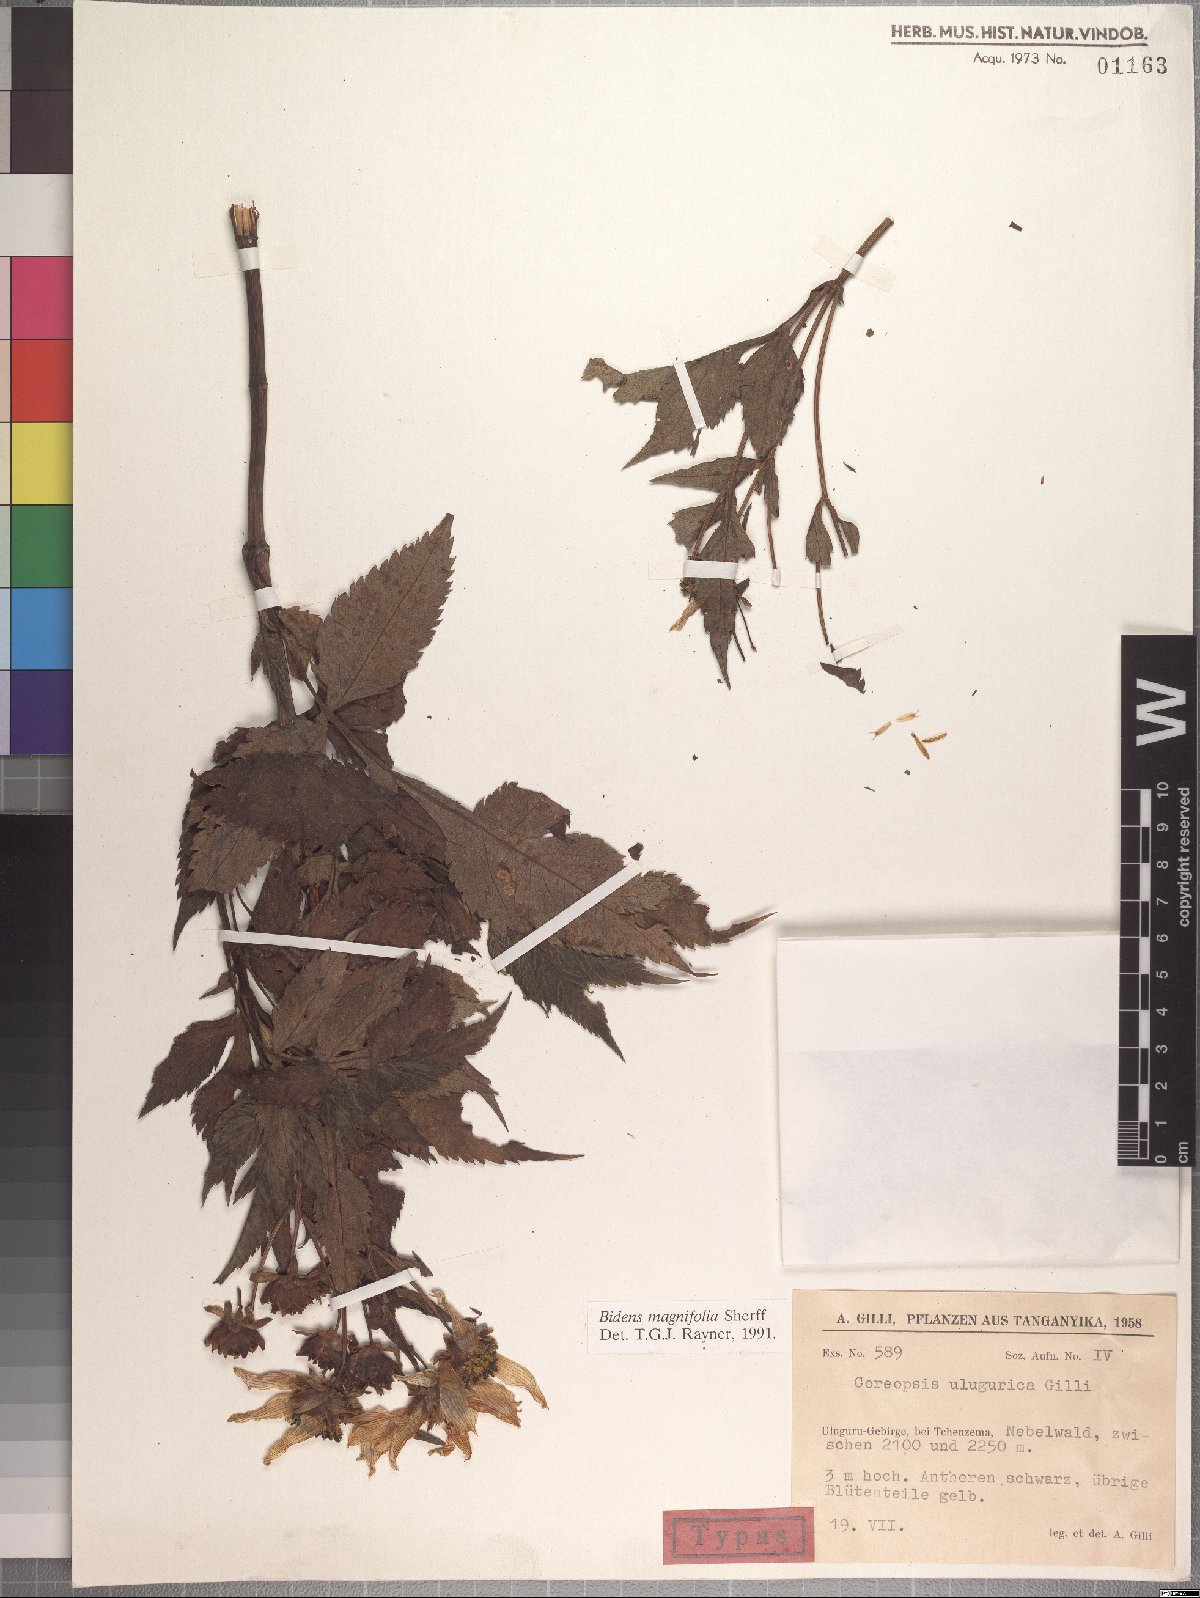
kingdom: Plantae
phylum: Tracheophyta
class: Magnoliopsida
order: Asterales
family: Asteraceae
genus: Bidens
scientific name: Bidens magnifolia
